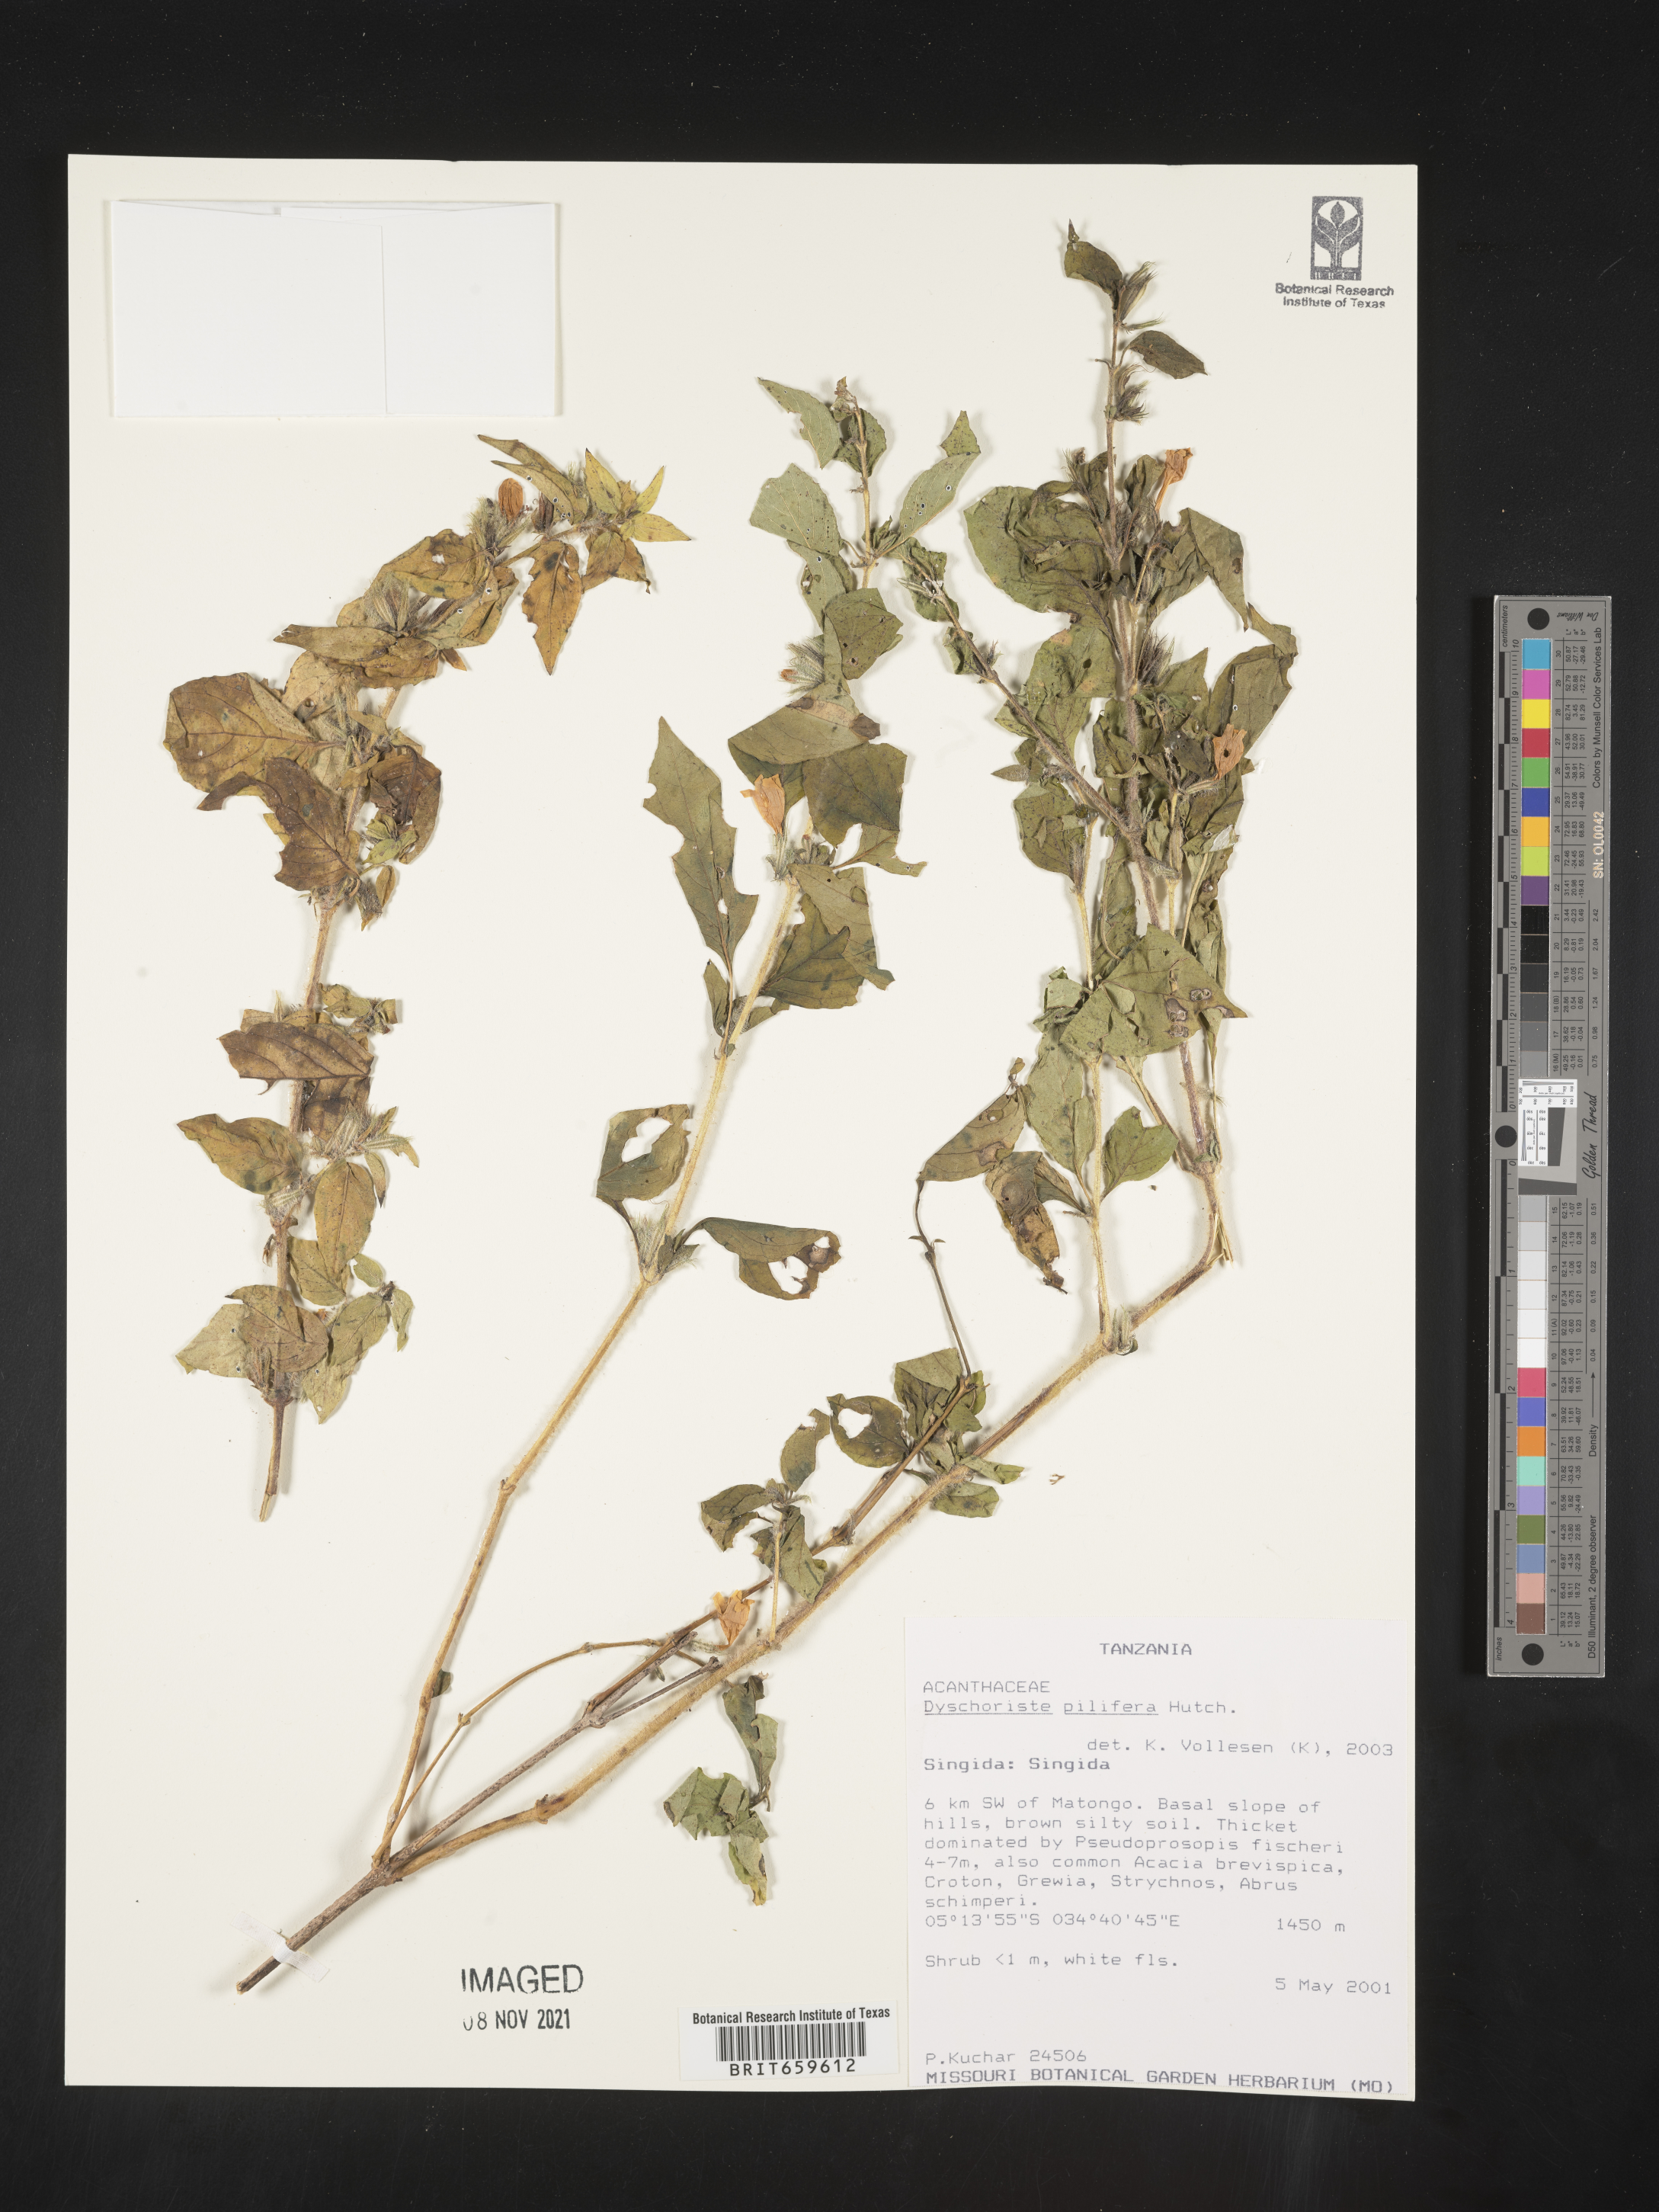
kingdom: Plantae
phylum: Tracheophyta
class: Magnoliopsida
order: Lamiales
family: Acanthaceae
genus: Dyschoriste
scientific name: Dyschoriste pilifera
